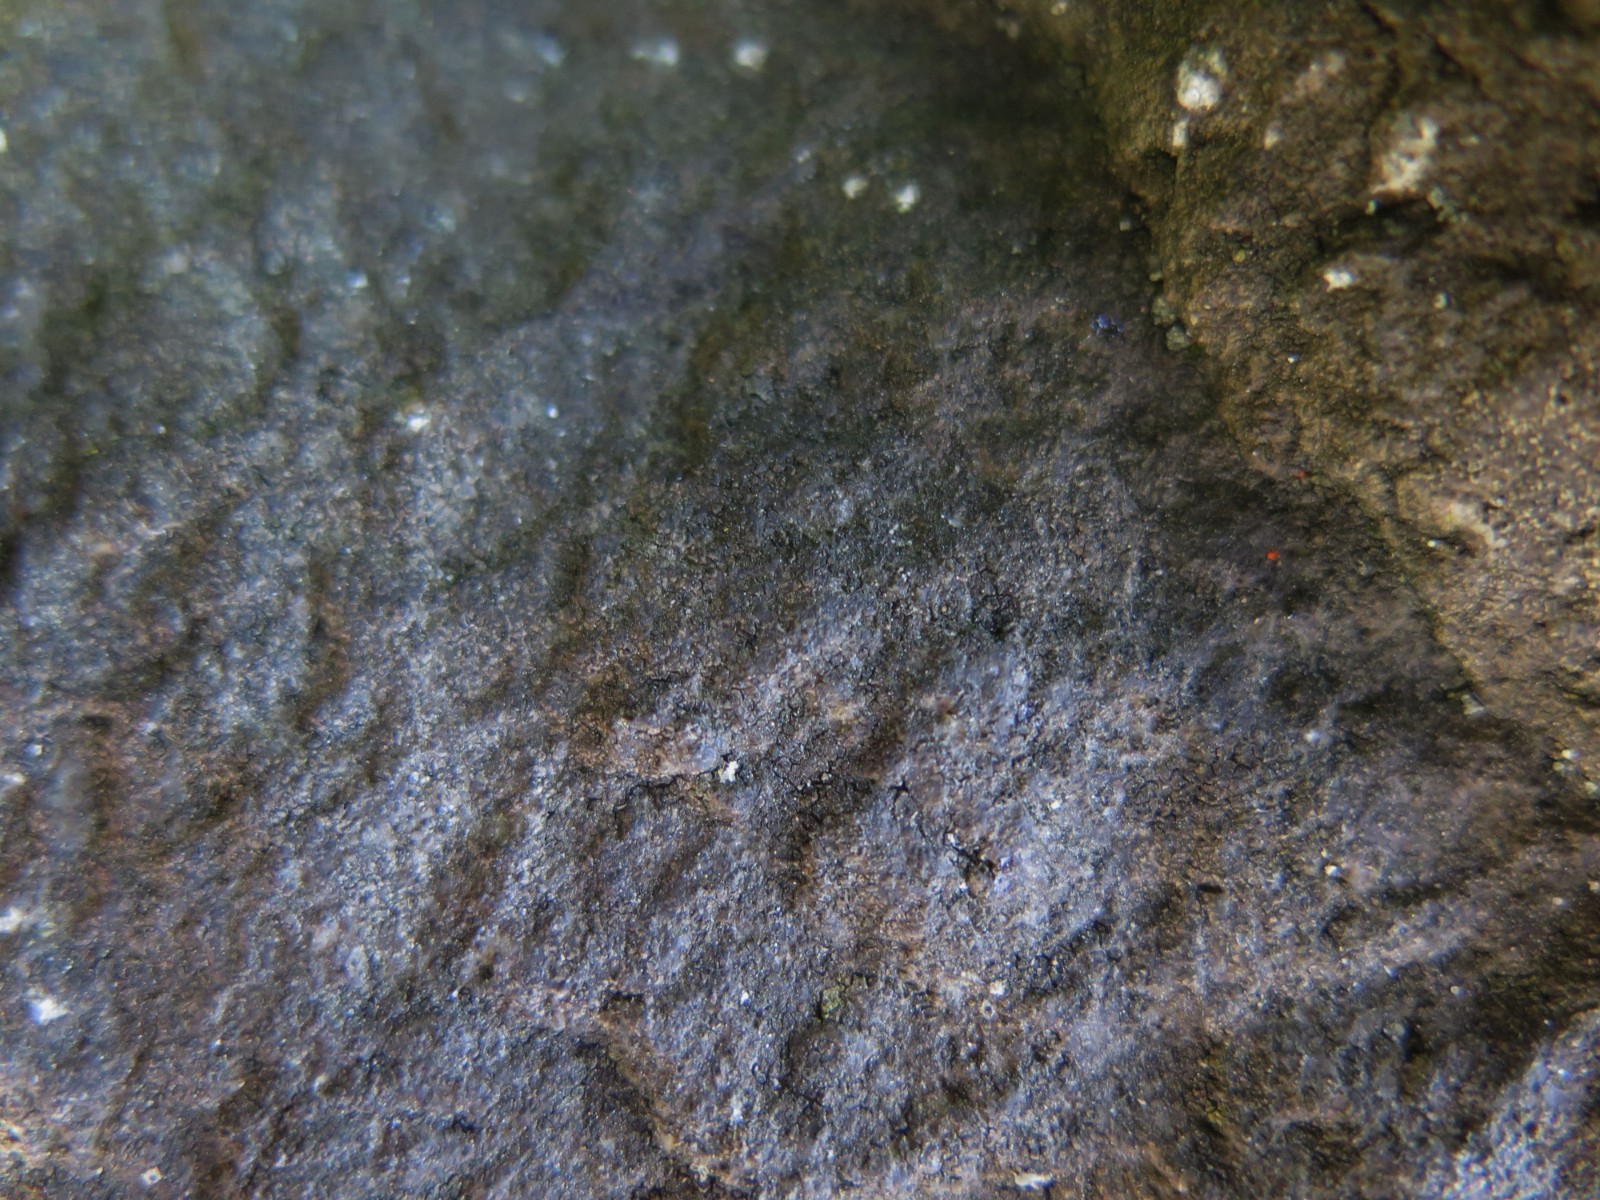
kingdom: Fungi
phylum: Ascomycota
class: Eurotiomycetes
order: Verrucariales
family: Verrucariaceae
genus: Verrucaria
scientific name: Verrucaria nigrescens
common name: sortbrun vortelav
